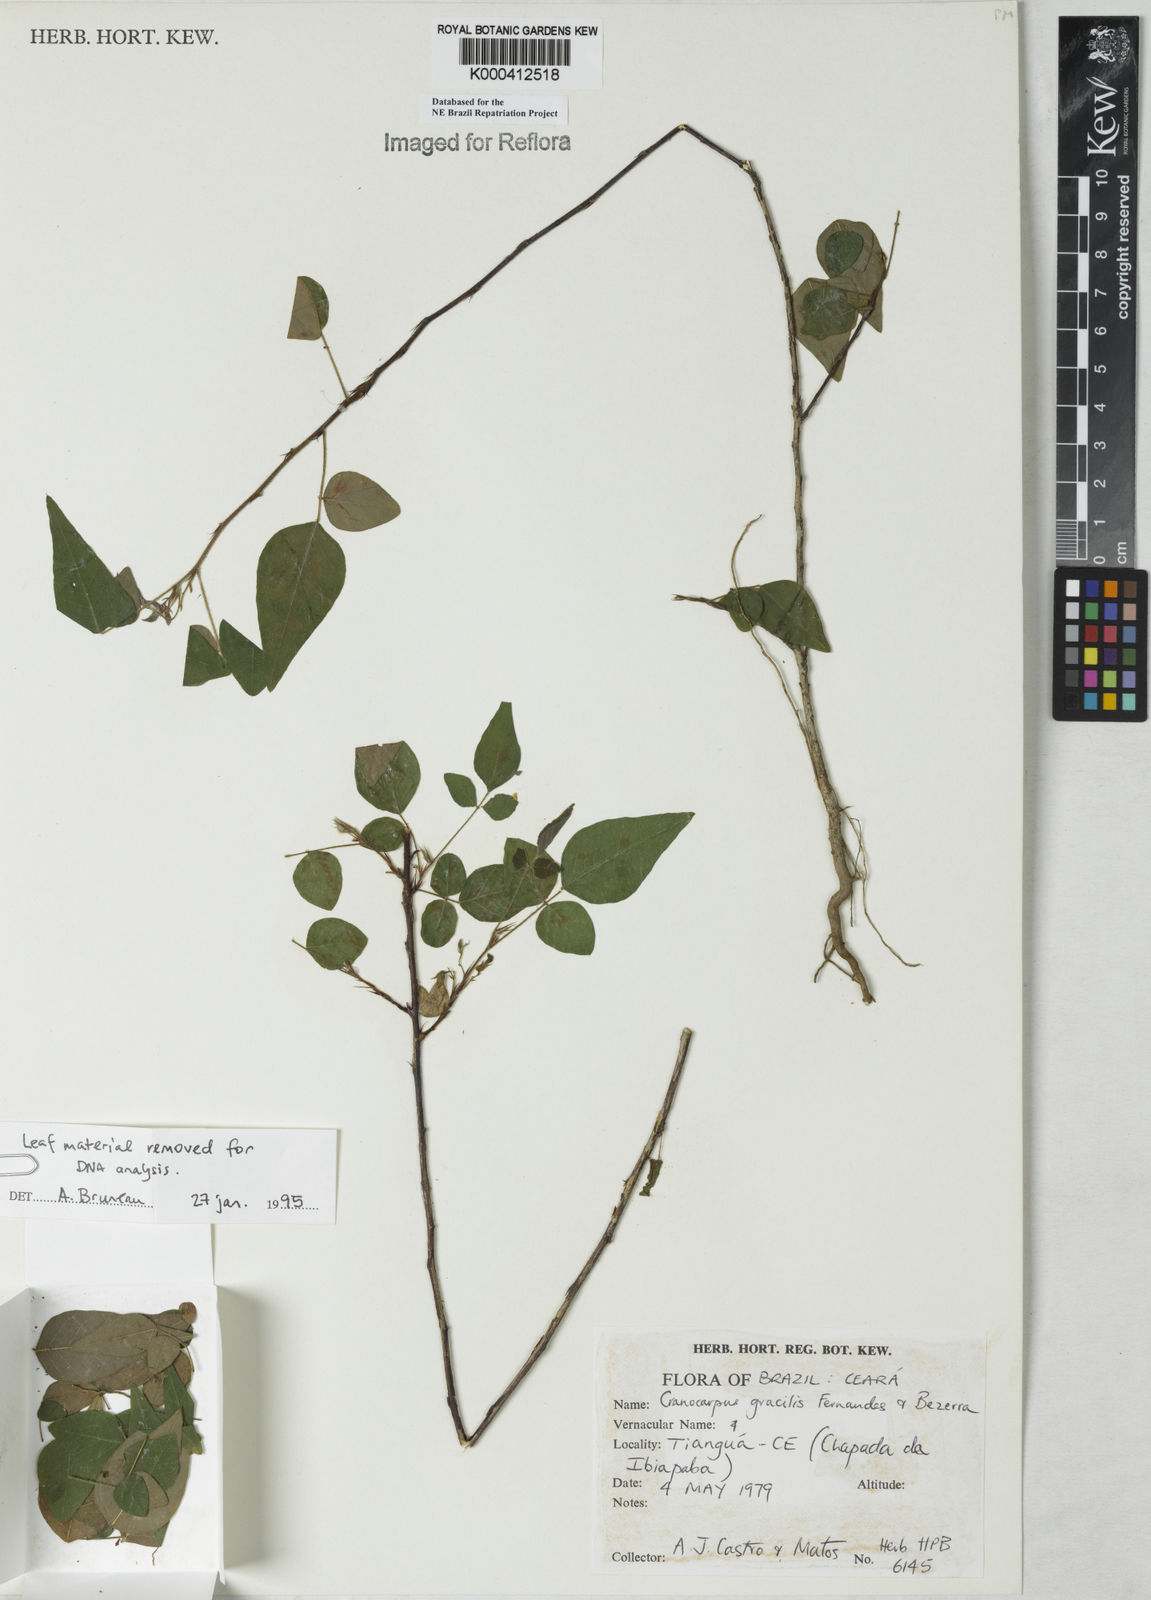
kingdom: Plantae
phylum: Tracheophyta
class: Magnoliopsida
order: Fabales
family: Fabaceae
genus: Cranocarpus
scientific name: Cranocarpus gracilis
